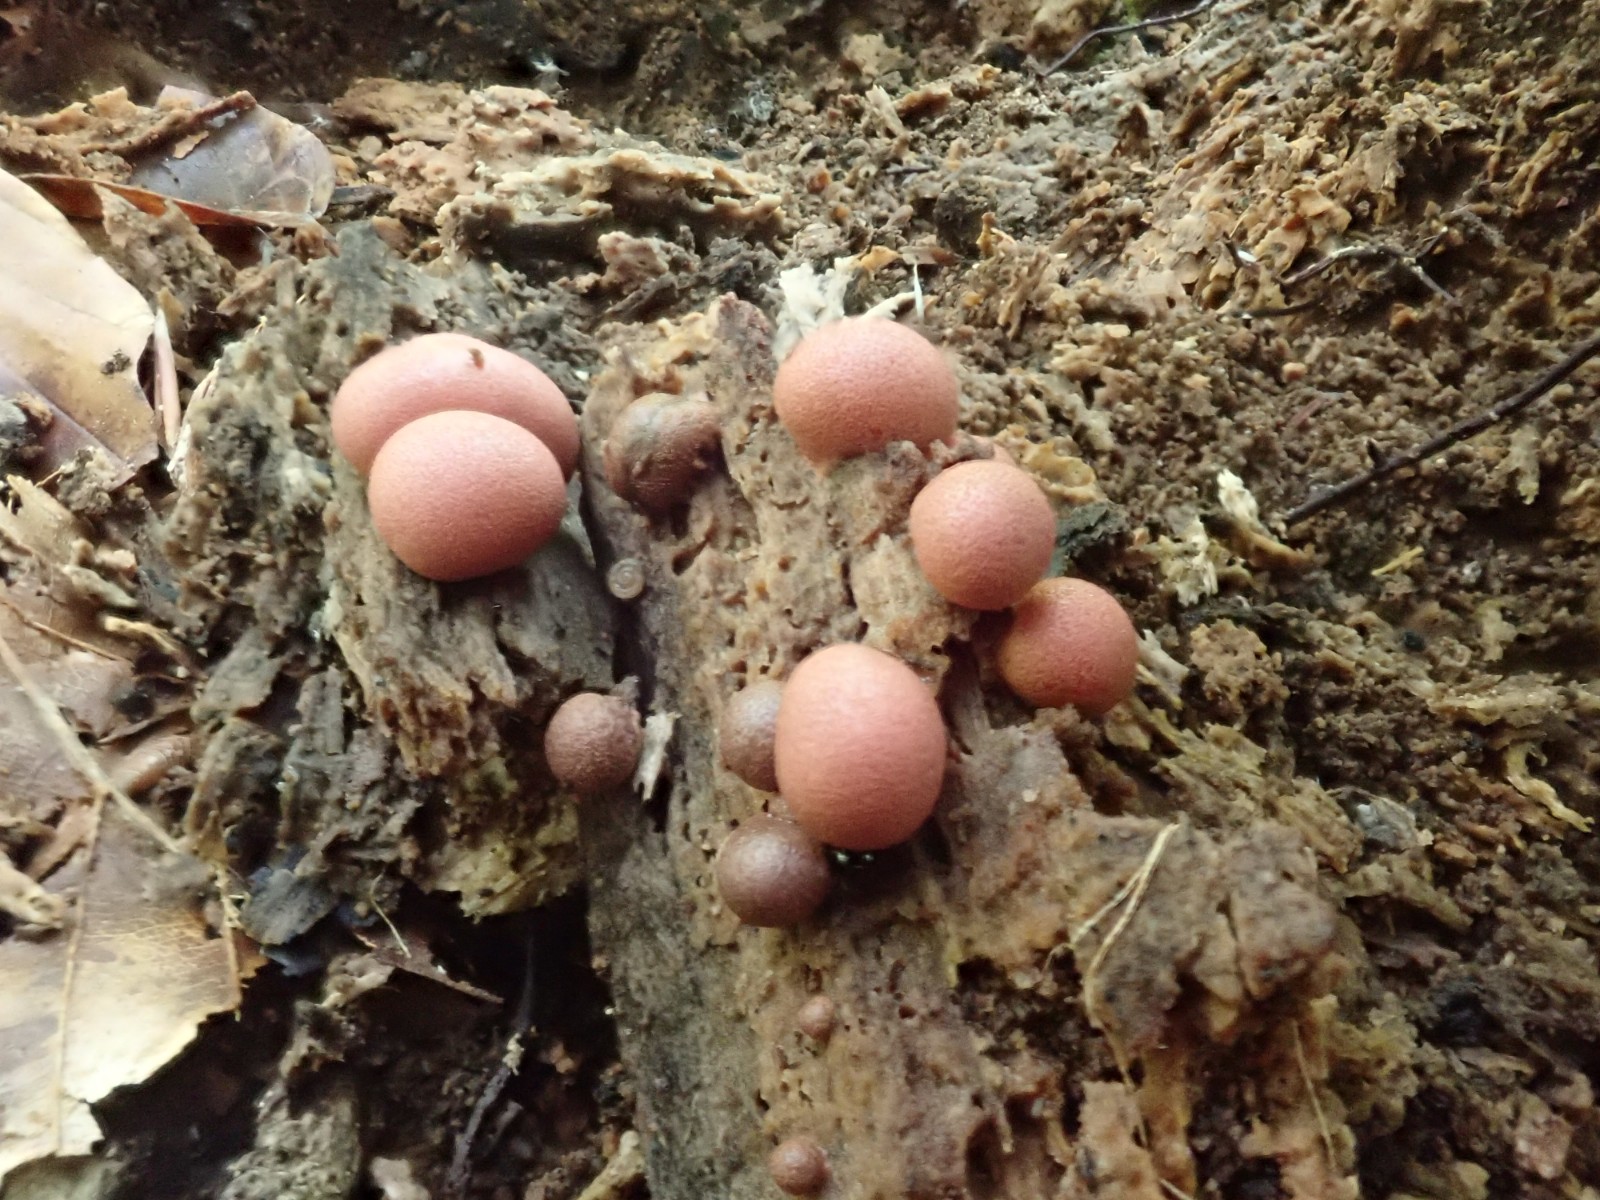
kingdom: Protozoa
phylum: Mycetozoa
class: Myxomycetes
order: Cribrariales
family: Tubiferaceae
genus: Lycogala
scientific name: Lycogala epidendrum
